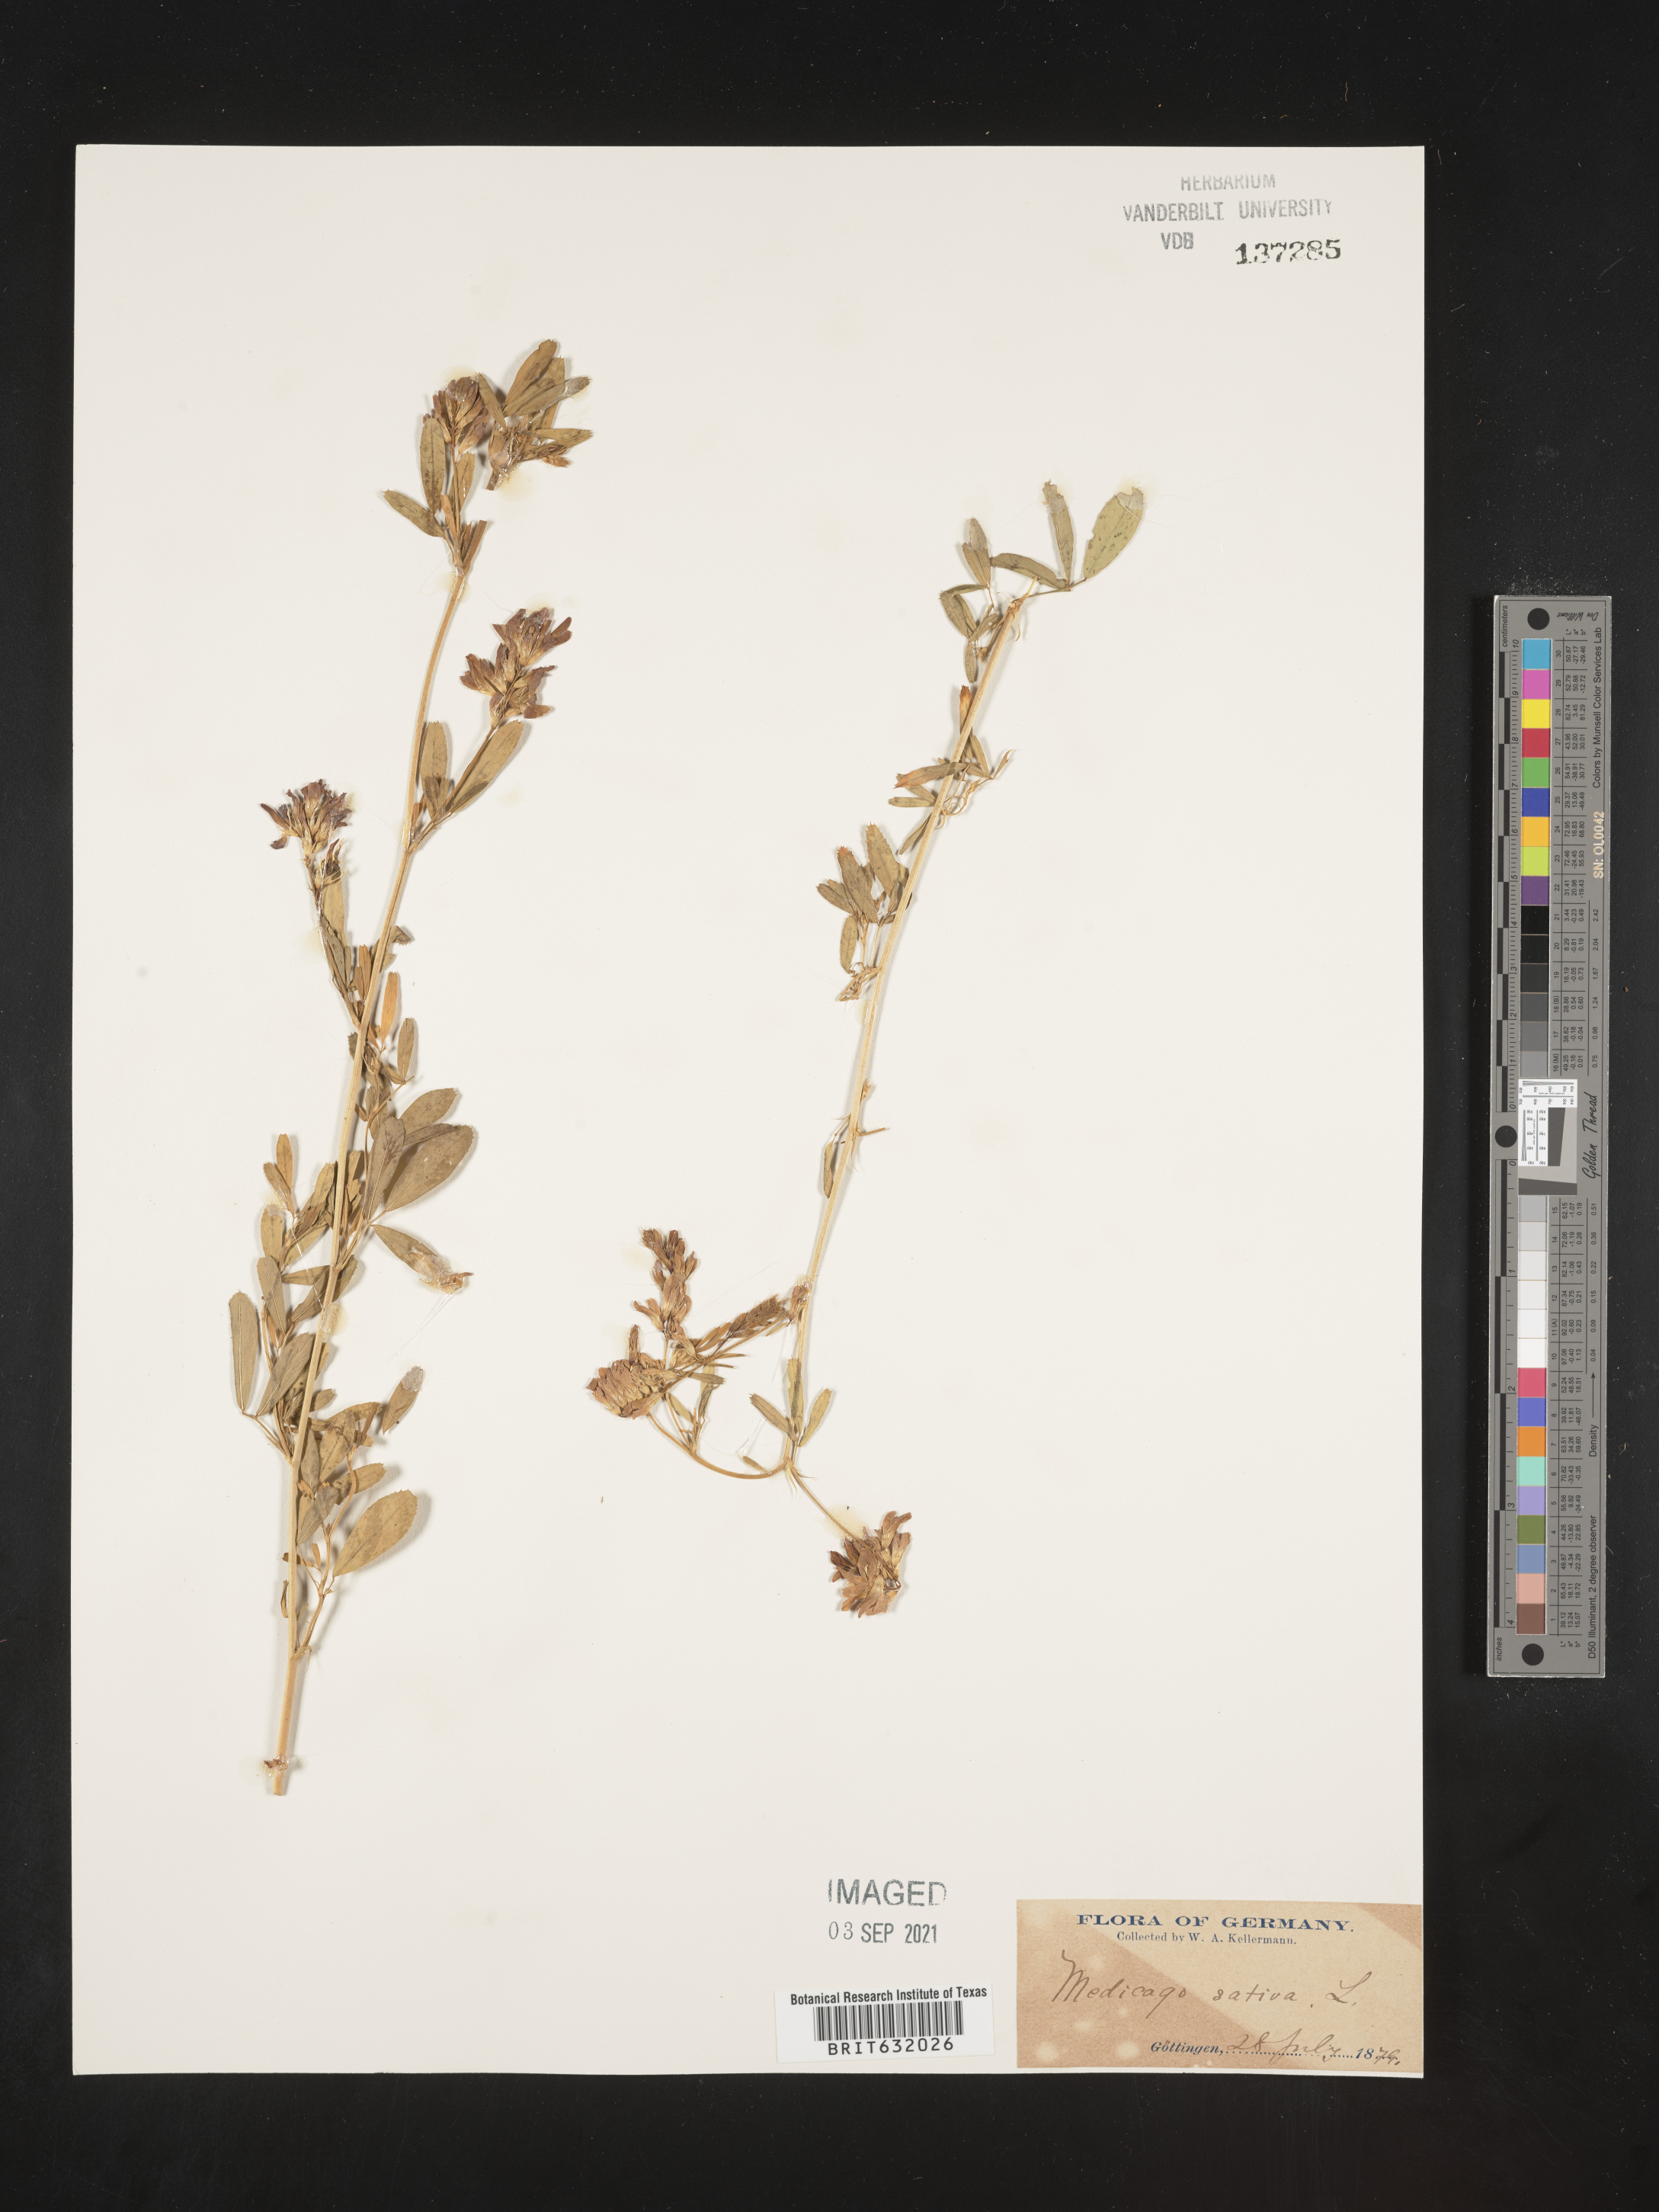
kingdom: Plantae
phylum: Tracheophyta
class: Magnoliopsida
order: Fabales
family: Fabaceae
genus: Medicago
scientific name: Medicago
